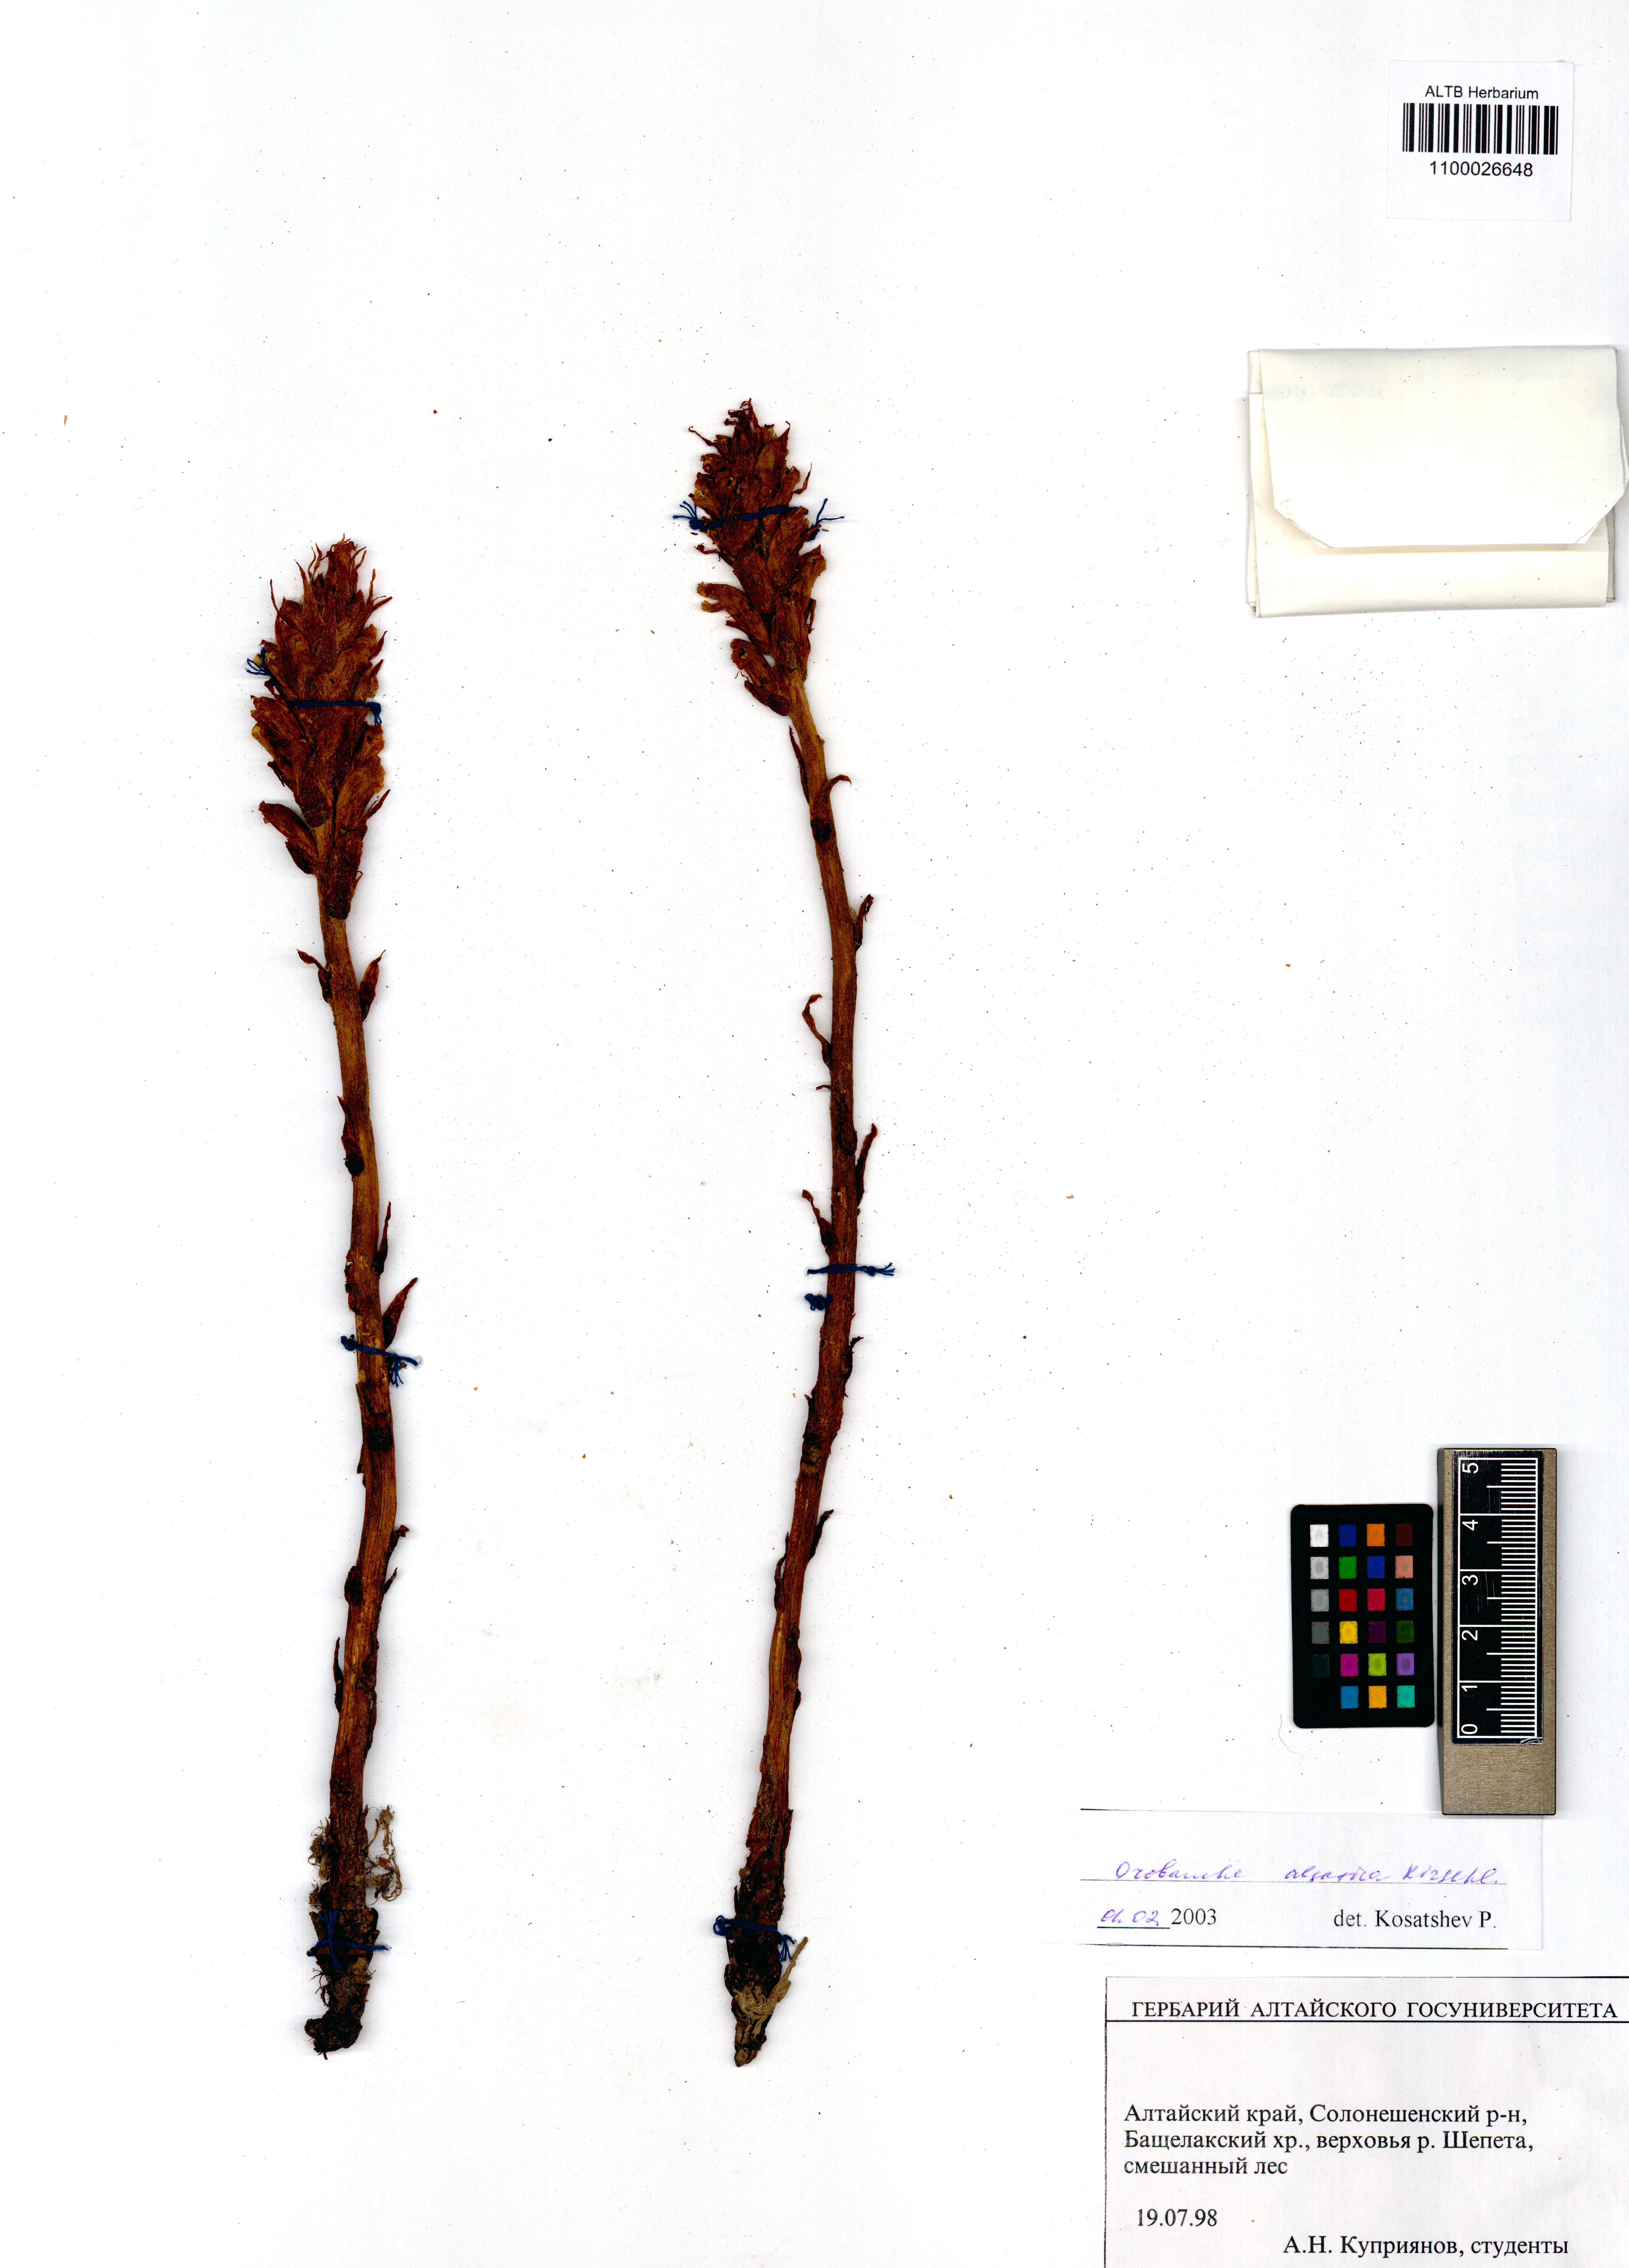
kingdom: Plantae
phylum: Tracheophyta
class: Magnoliopsida
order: Lamiales
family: Orobanchaceae
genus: Orobanche
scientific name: Orobanche alsatica
